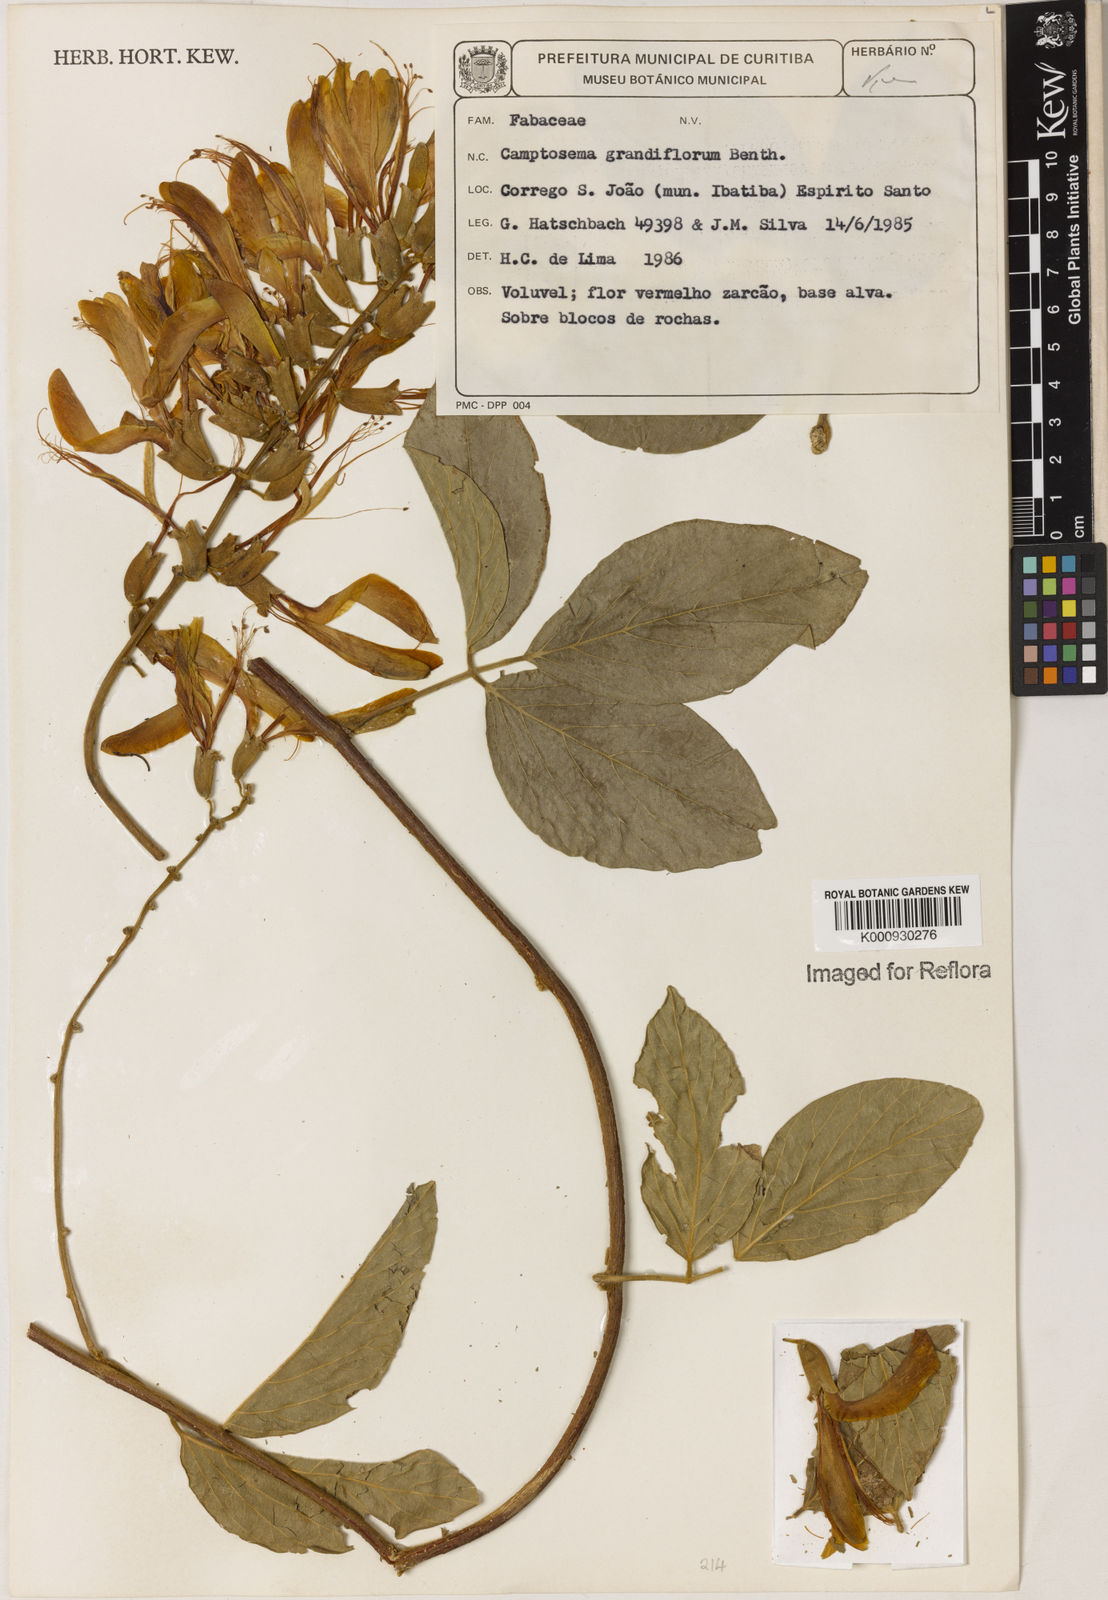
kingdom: Plantae
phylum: Tracheophyta
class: Magnoliopsida
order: Fabales
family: Fabaceae
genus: Camptosema
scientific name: Camptosema spectabile
